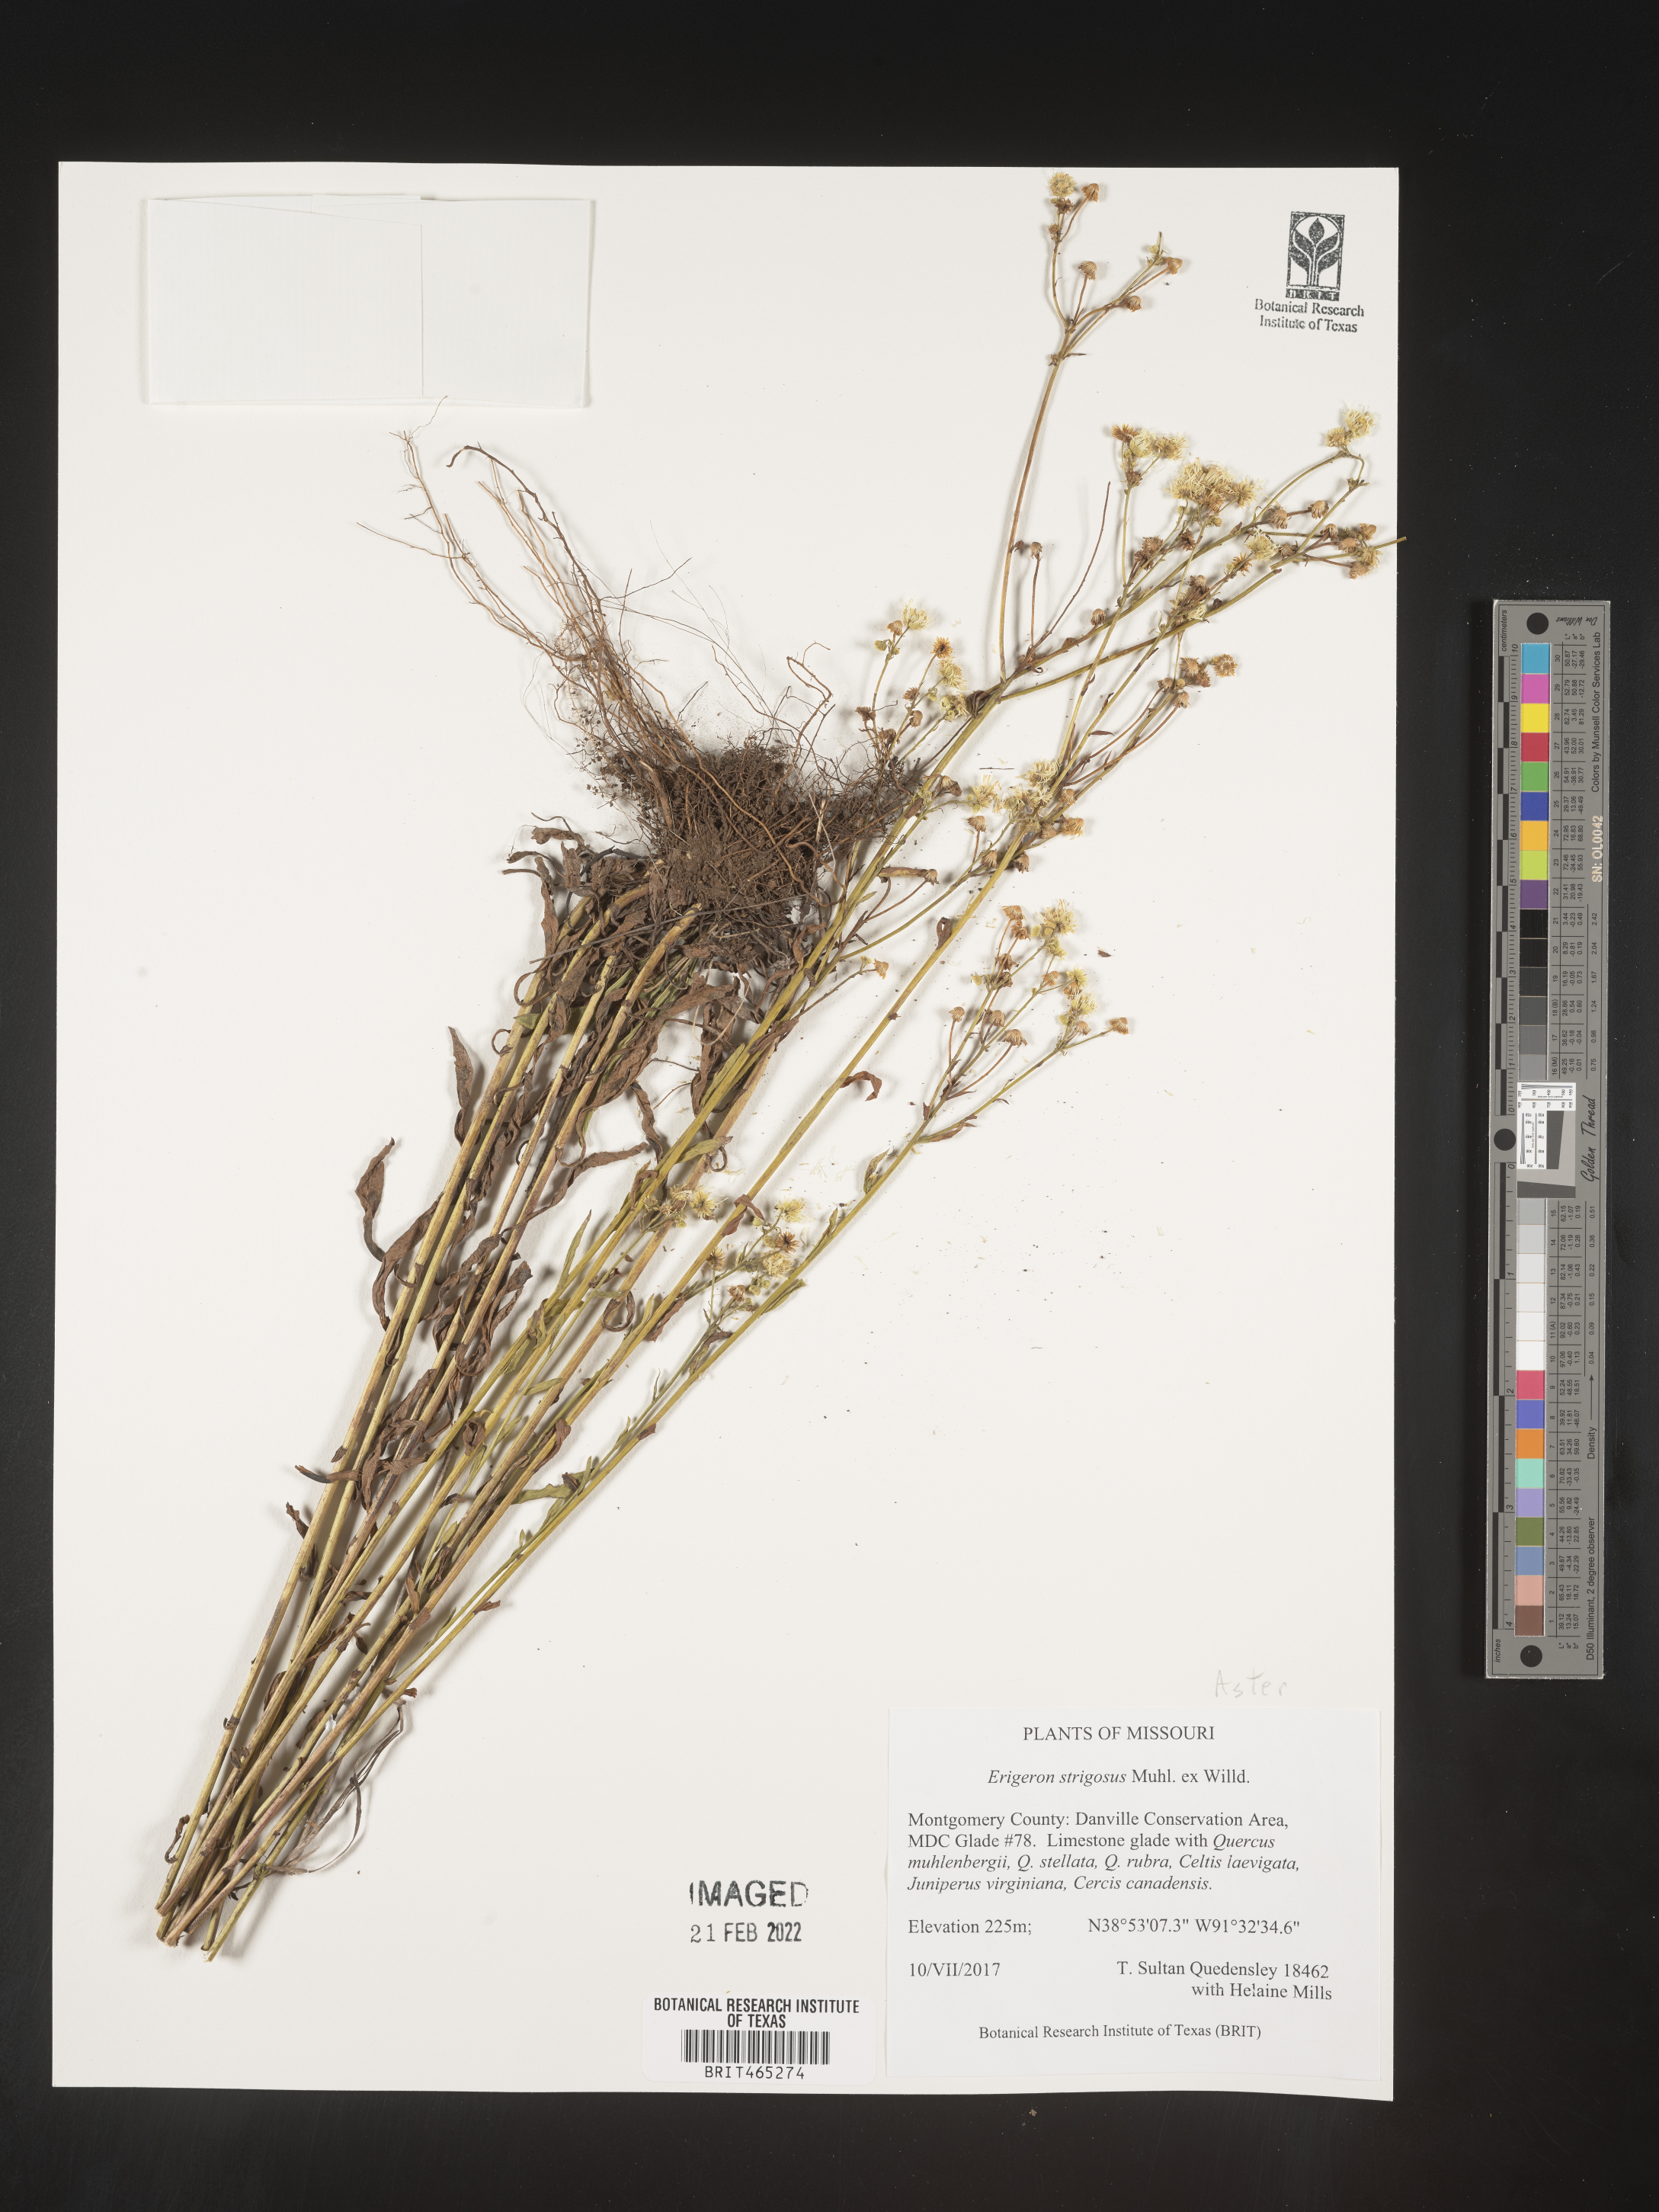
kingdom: Plantae
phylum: Tracheophyta
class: Magnoliopsida
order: Asterales
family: Asteraceae
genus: Erigeron
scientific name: Erigeron strigosus
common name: Common eastern fleabane
